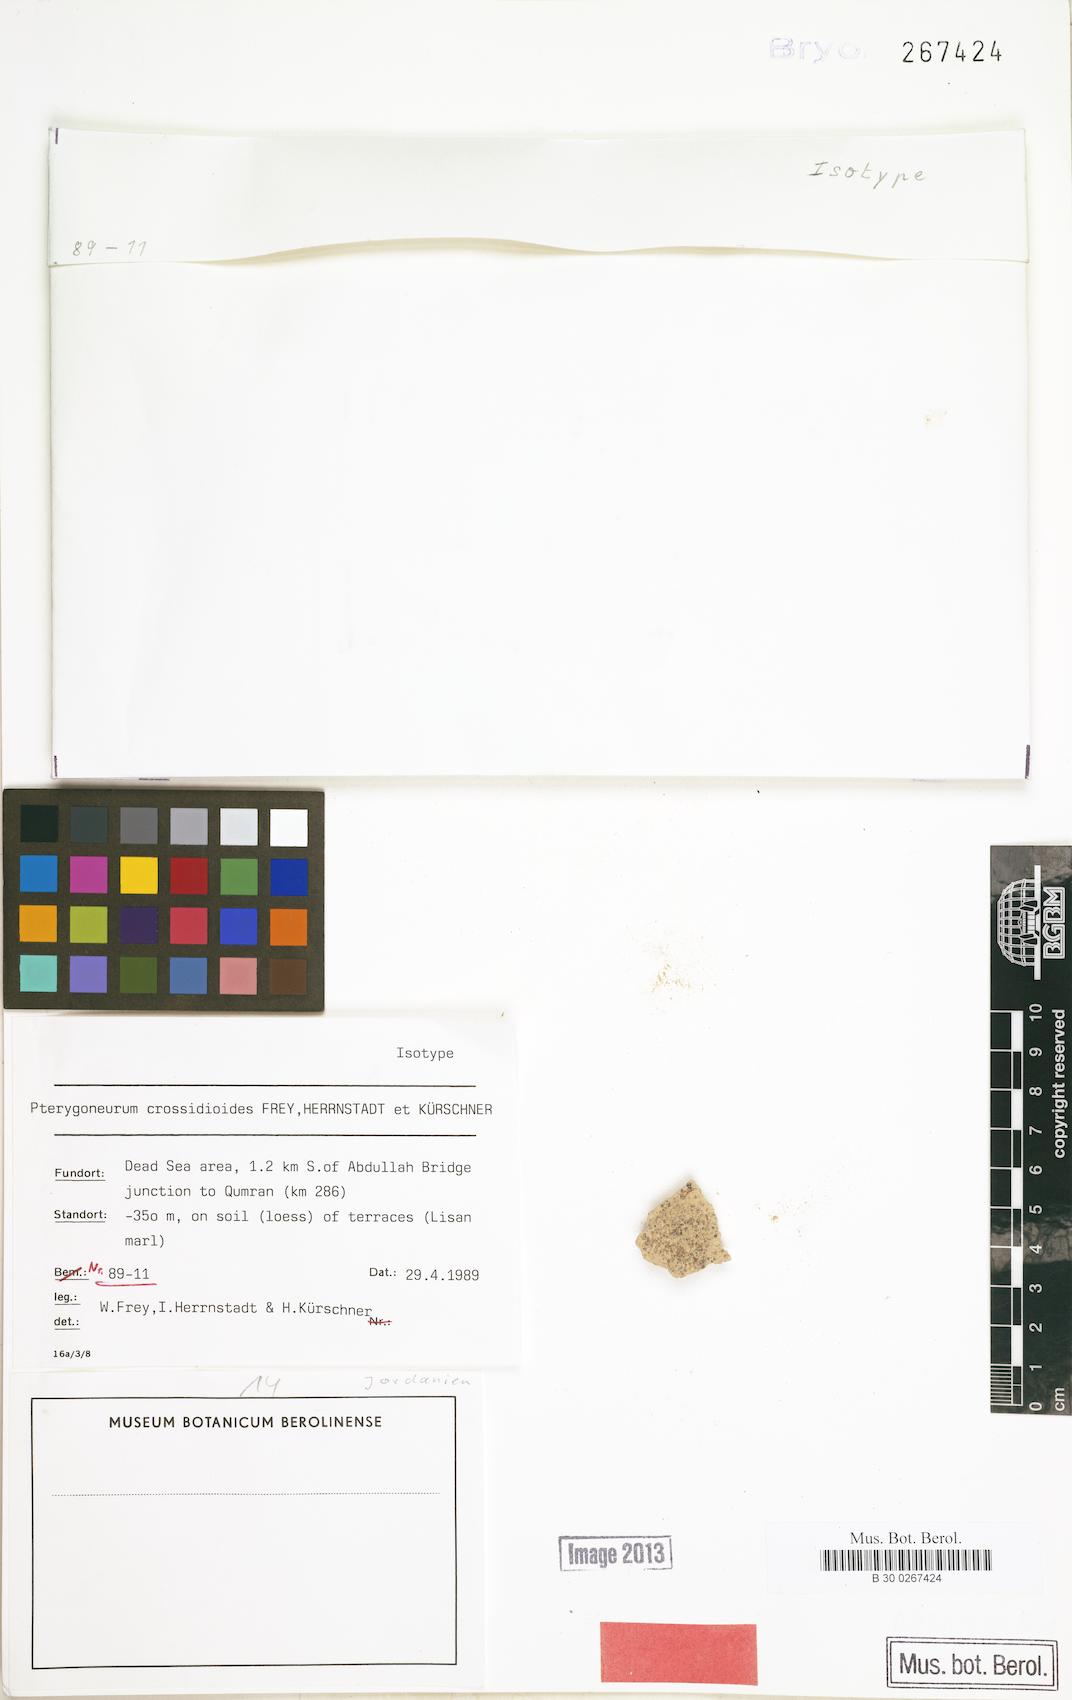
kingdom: Plantae
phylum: Bryophyta
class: Bryopsida
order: Pottiales
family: Pottiaceae
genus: Pterygoneurum
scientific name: Pterygoneurum ovatum
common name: Ovate pterygoneurum
